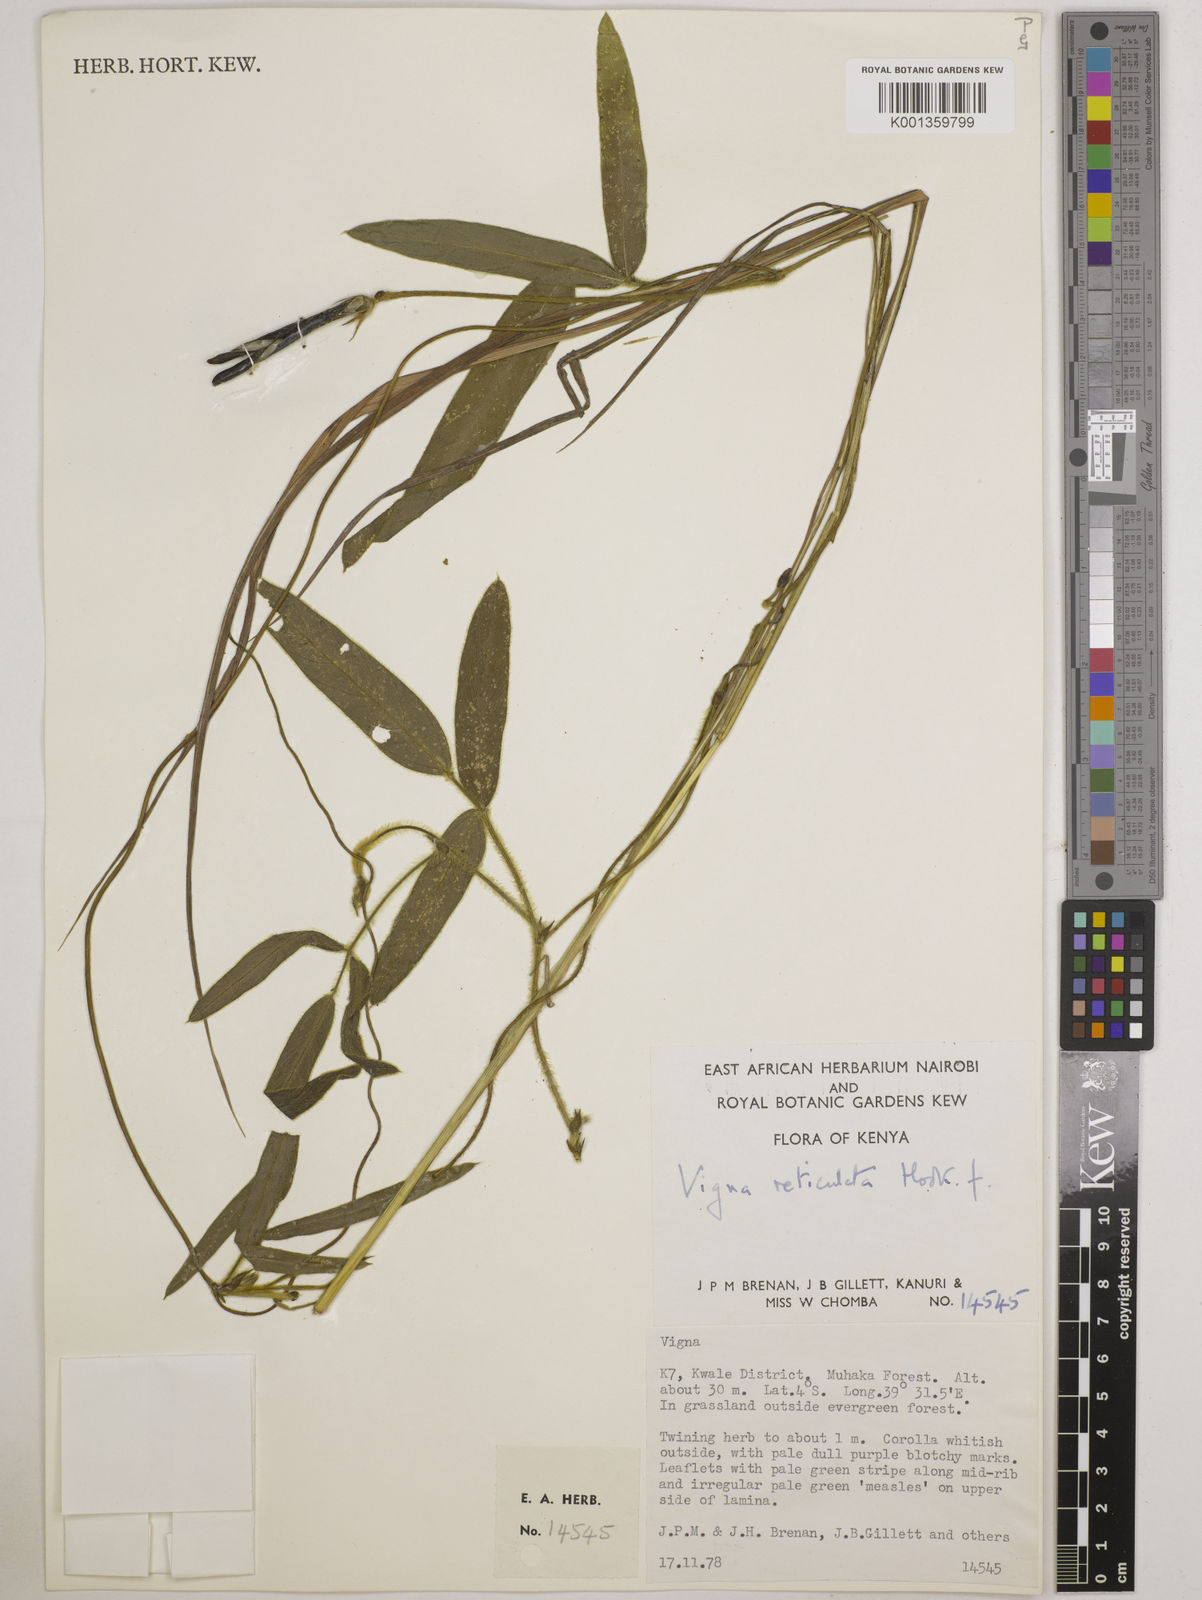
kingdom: Plantae
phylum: Tracheophyta
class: Magnoliopsida
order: Fabales
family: Fabaceae
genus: Vigna
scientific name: Vigna reticulata
